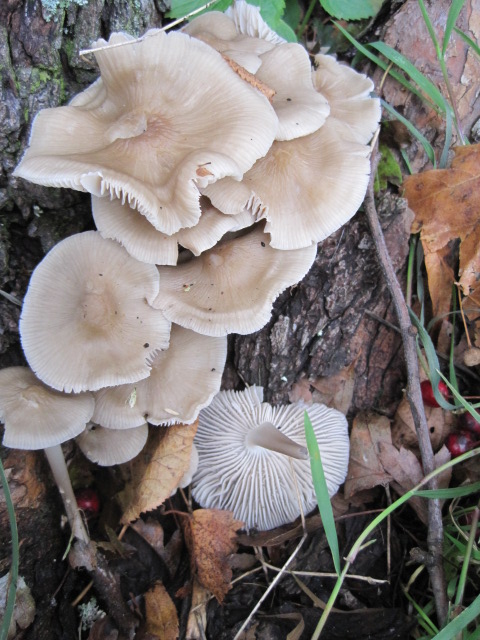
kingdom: Fungi
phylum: Basidiomycota
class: Agaricomycetes
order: Agaricales
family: Mycenaceae
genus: Mycena
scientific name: Mycena galericulata
